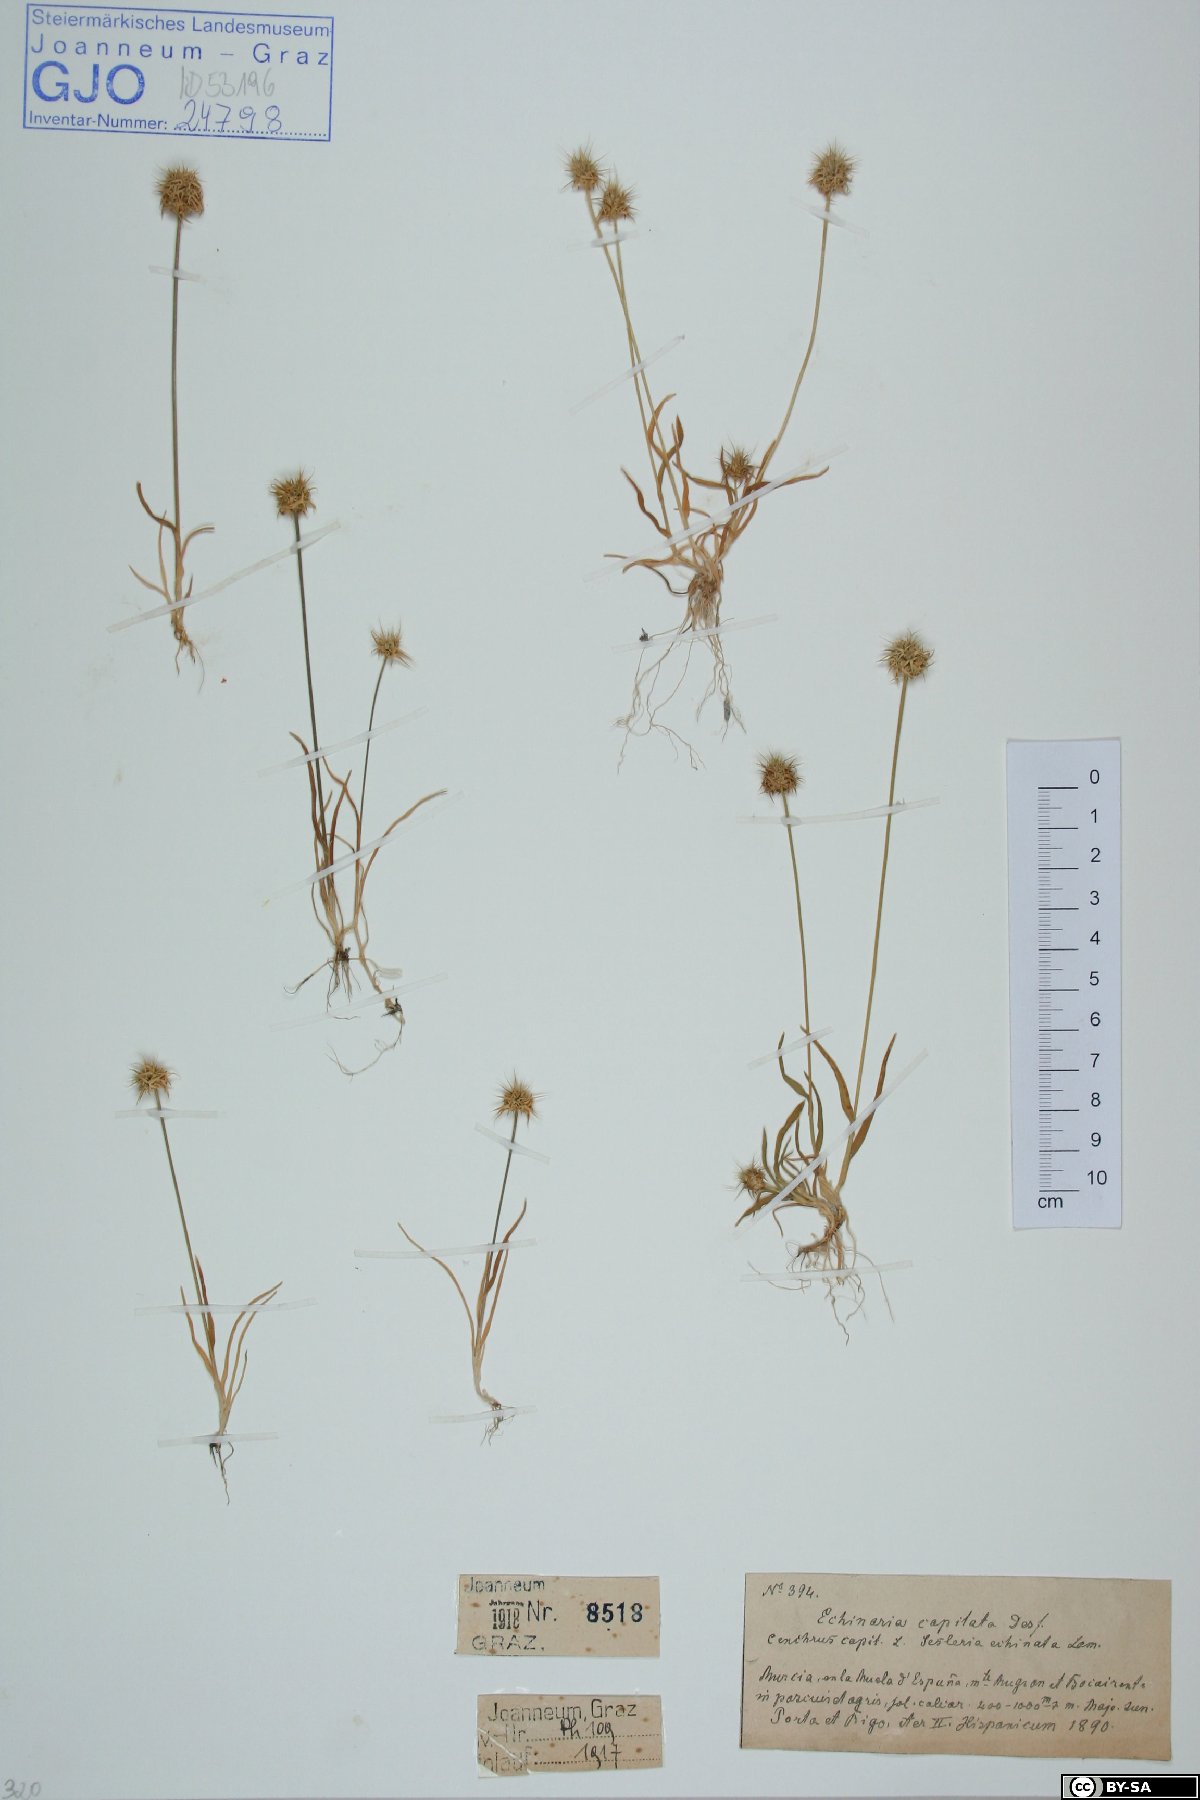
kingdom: Plantae
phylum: Tracheophyta
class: Liliopsida
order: Poales
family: Poaceae
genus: Echinaria
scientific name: Echinaria capitata
